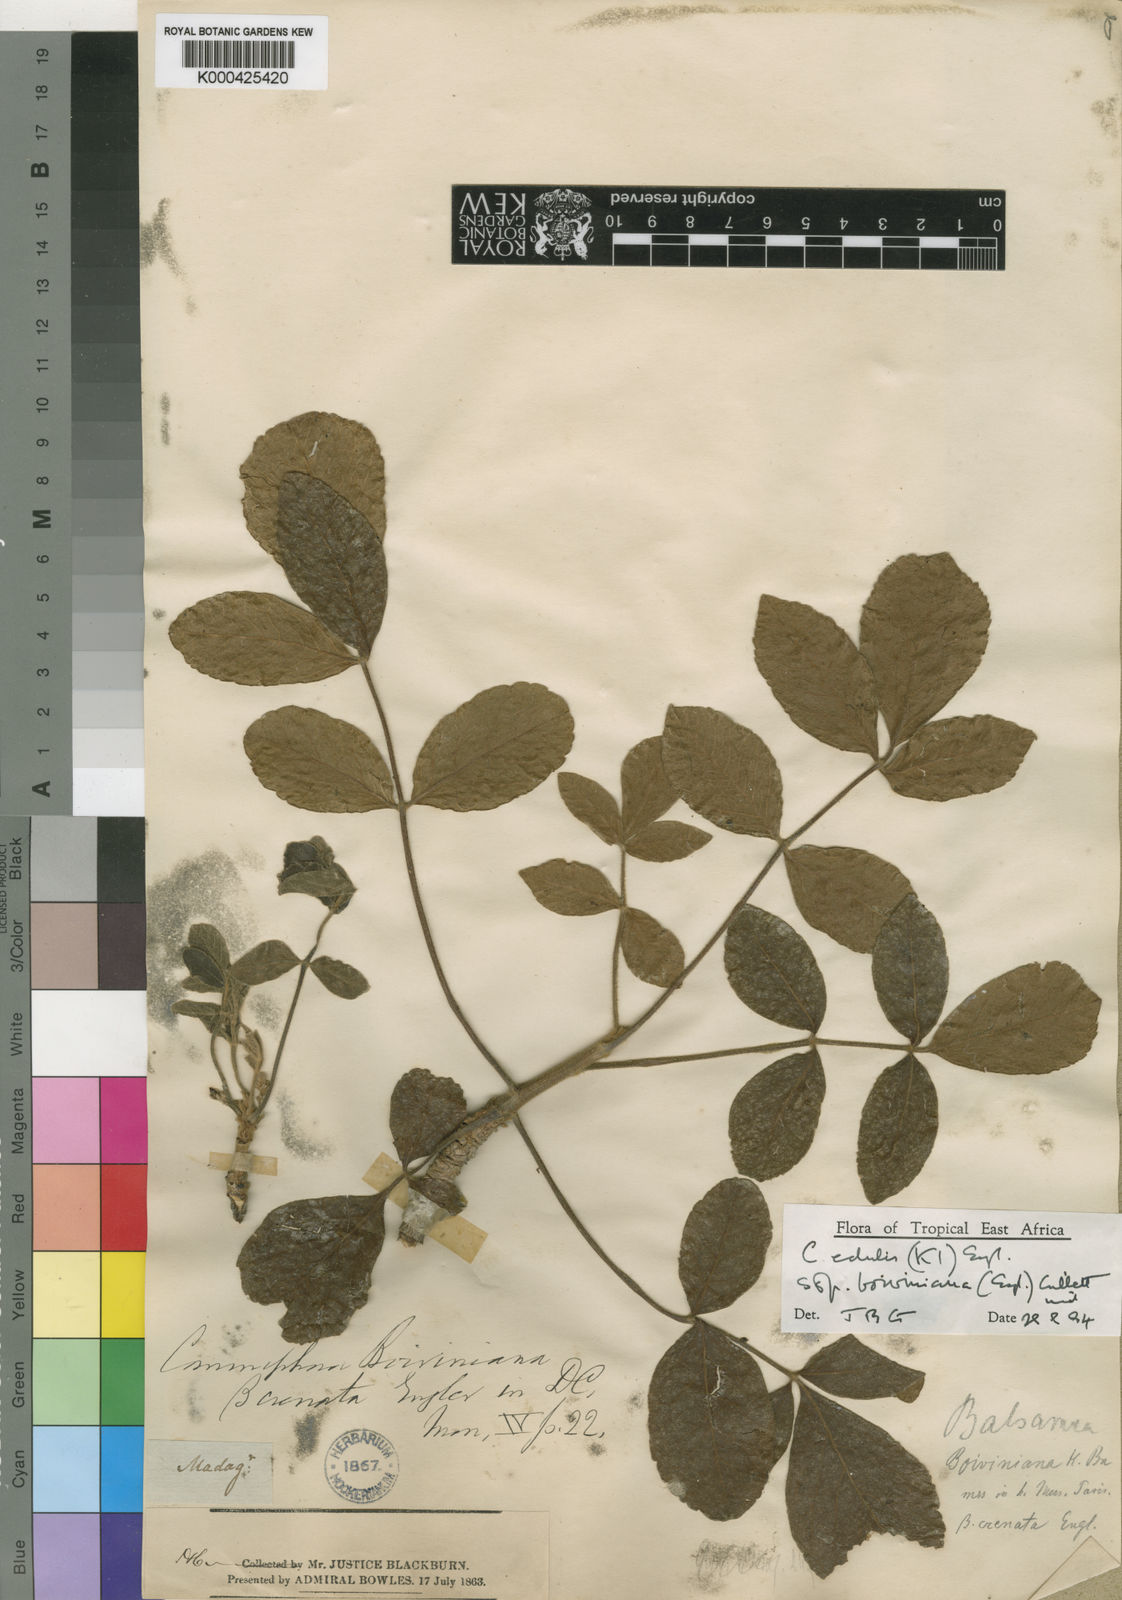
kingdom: Plantae
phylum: Tracheophyta
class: Magnoliopsida
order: Sapindales
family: Burseraceae
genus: Commiphora
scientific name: Commiphora edulis
